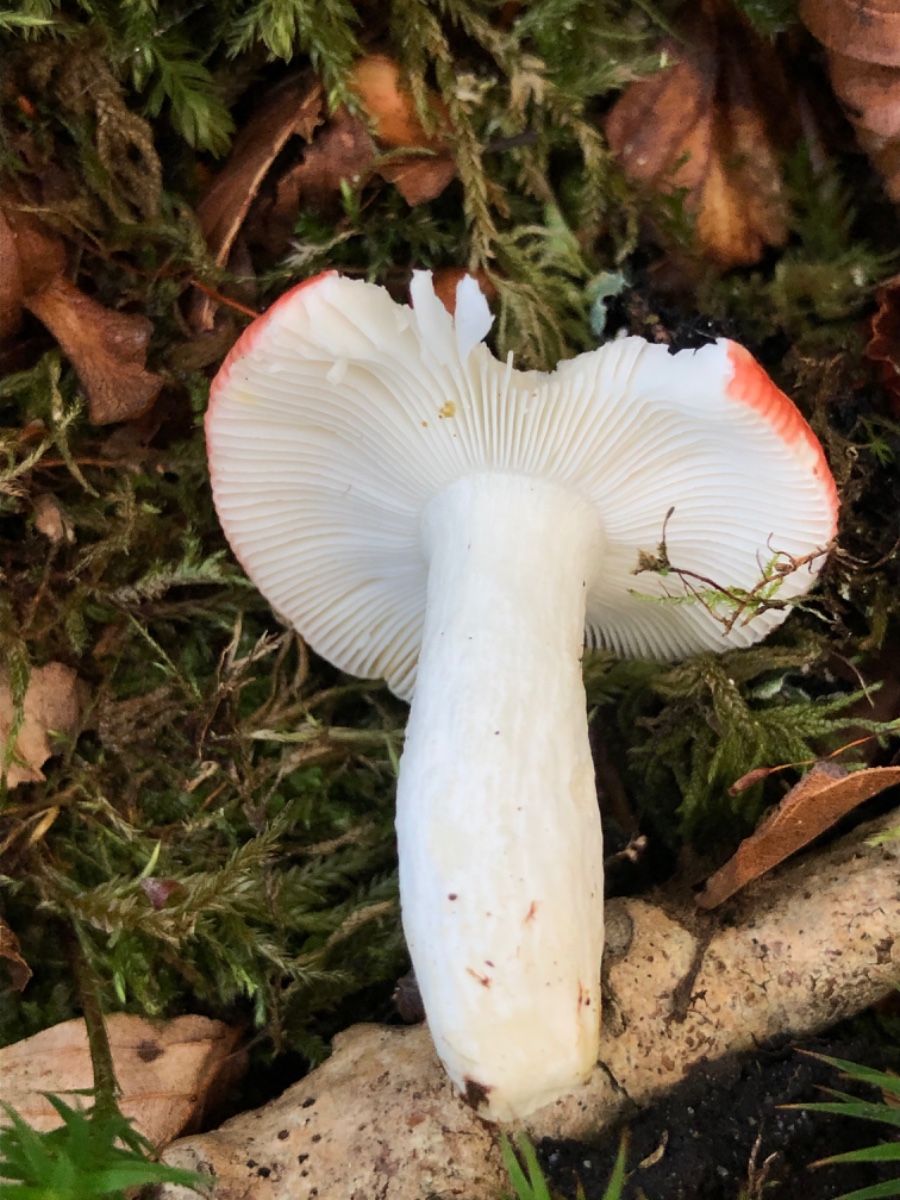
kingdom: Fungi
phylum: Basidiomycota
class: Agaricomycetes
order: Russulales
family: Russulaceae
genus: Russula
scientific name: Russula nobilis
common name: lille gift-skørhat
